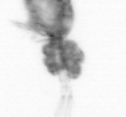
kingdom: Animalia
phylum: Arthropoda
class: Copepoda
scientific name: Copepoda
